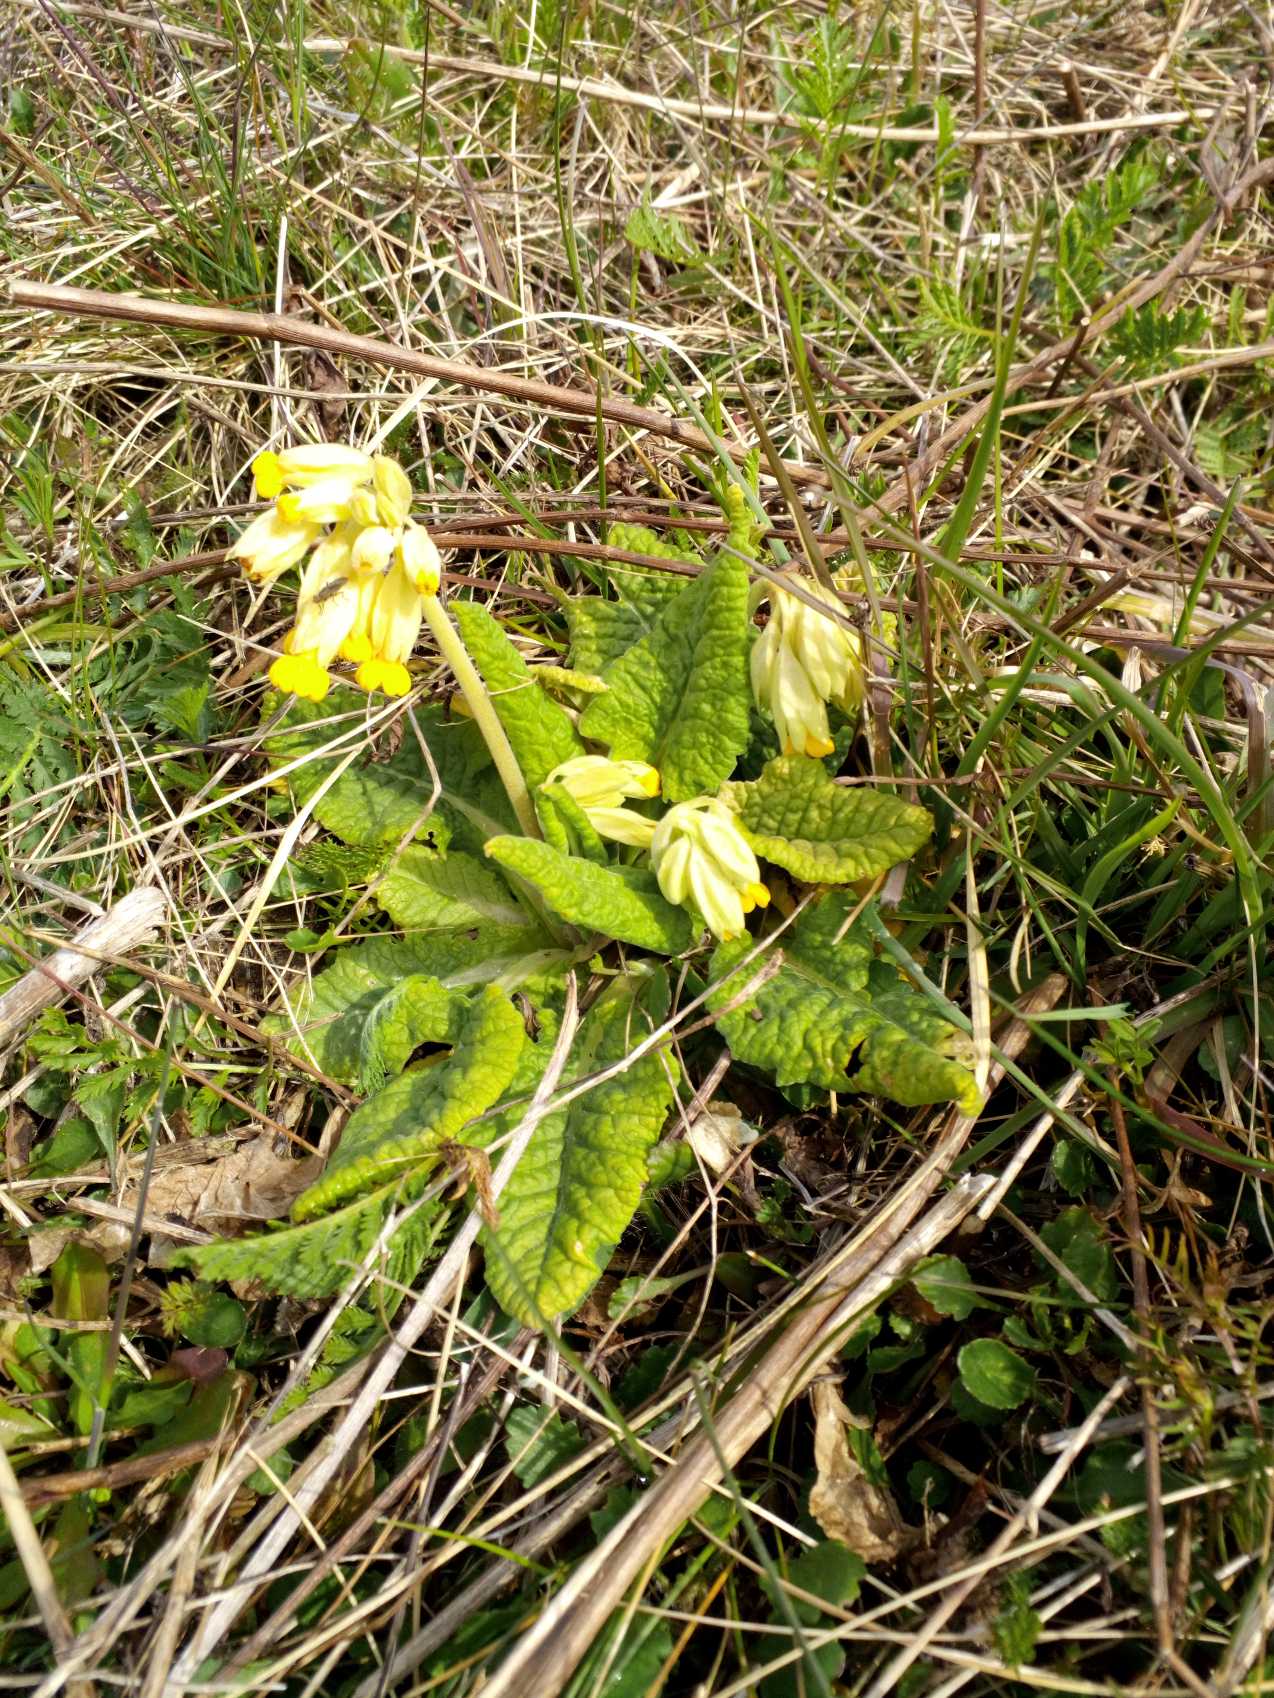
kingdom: Plantae
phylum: Tracheophyta
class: Magnoliopsida
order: Ericales
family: Primulaceae
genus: Primula
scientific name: Primula veris
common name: Hulkravet kodriver
